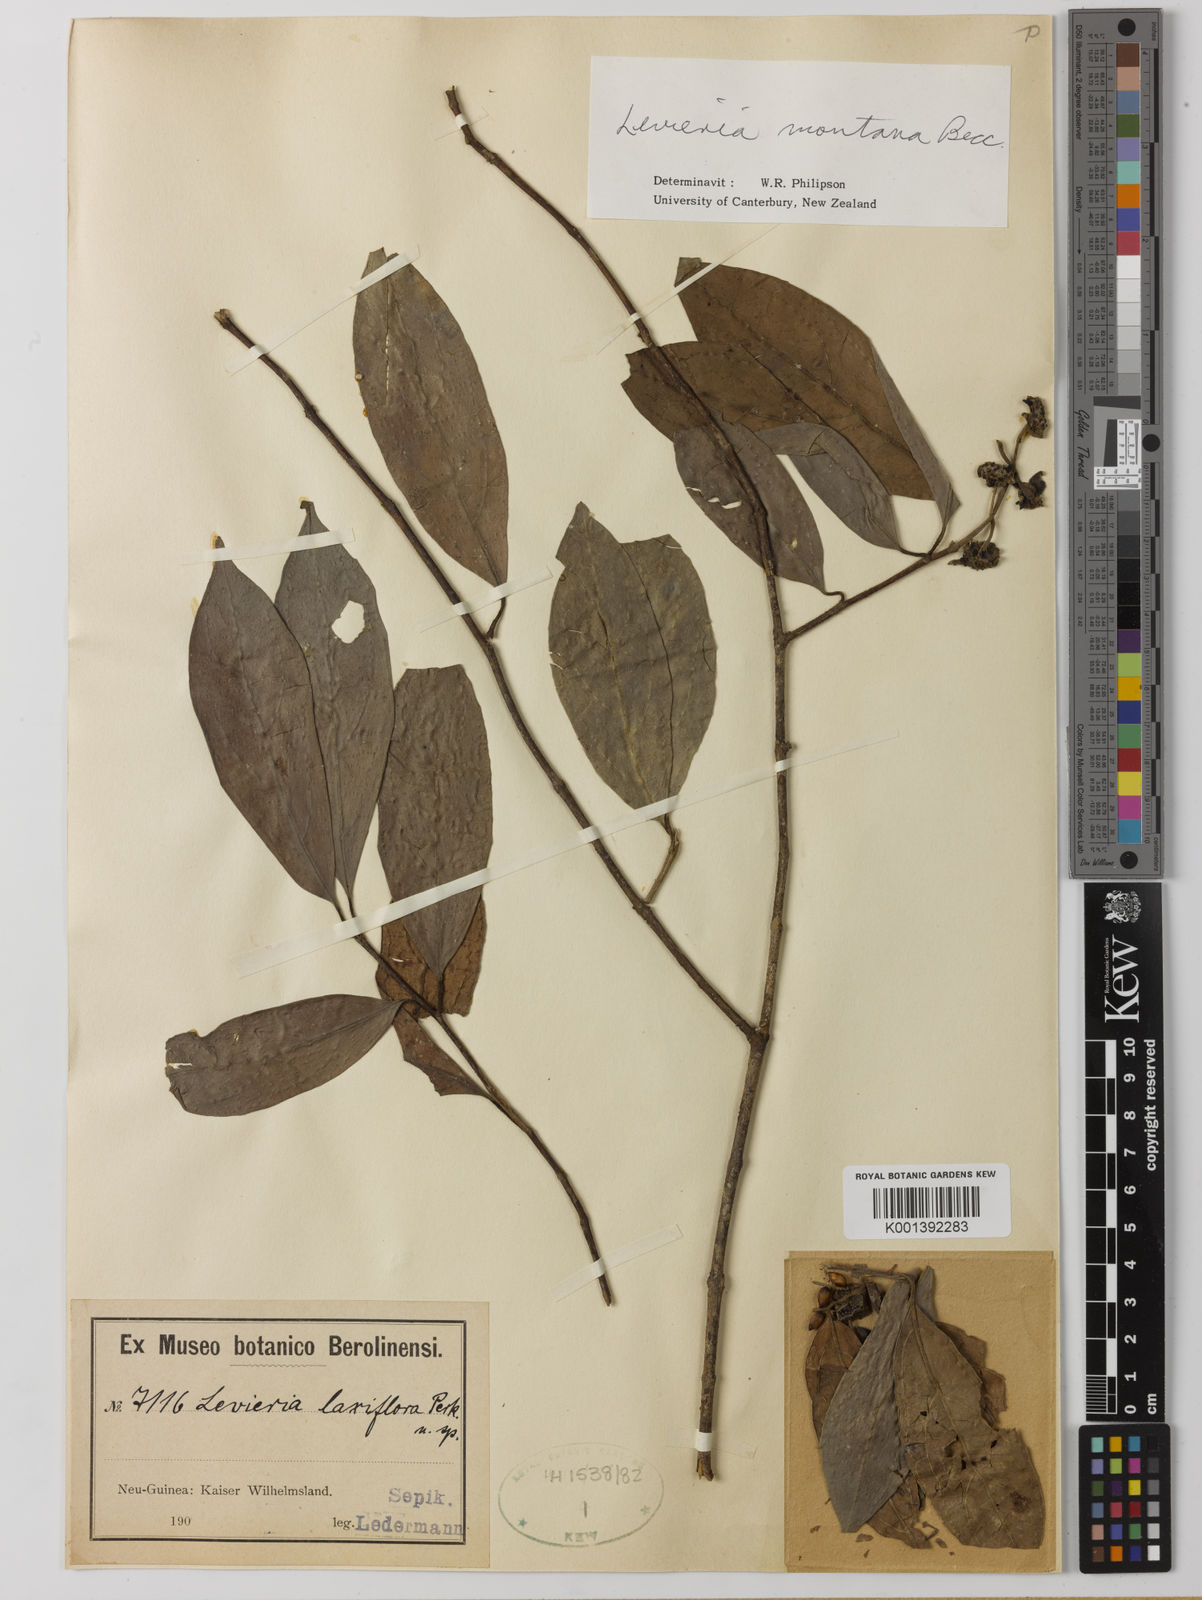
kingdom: Plantae
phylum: Tracheophyta
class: Magnoliopsida
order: Laurales
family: Monimiaceae
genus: Levieria
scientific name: Levieria montana
